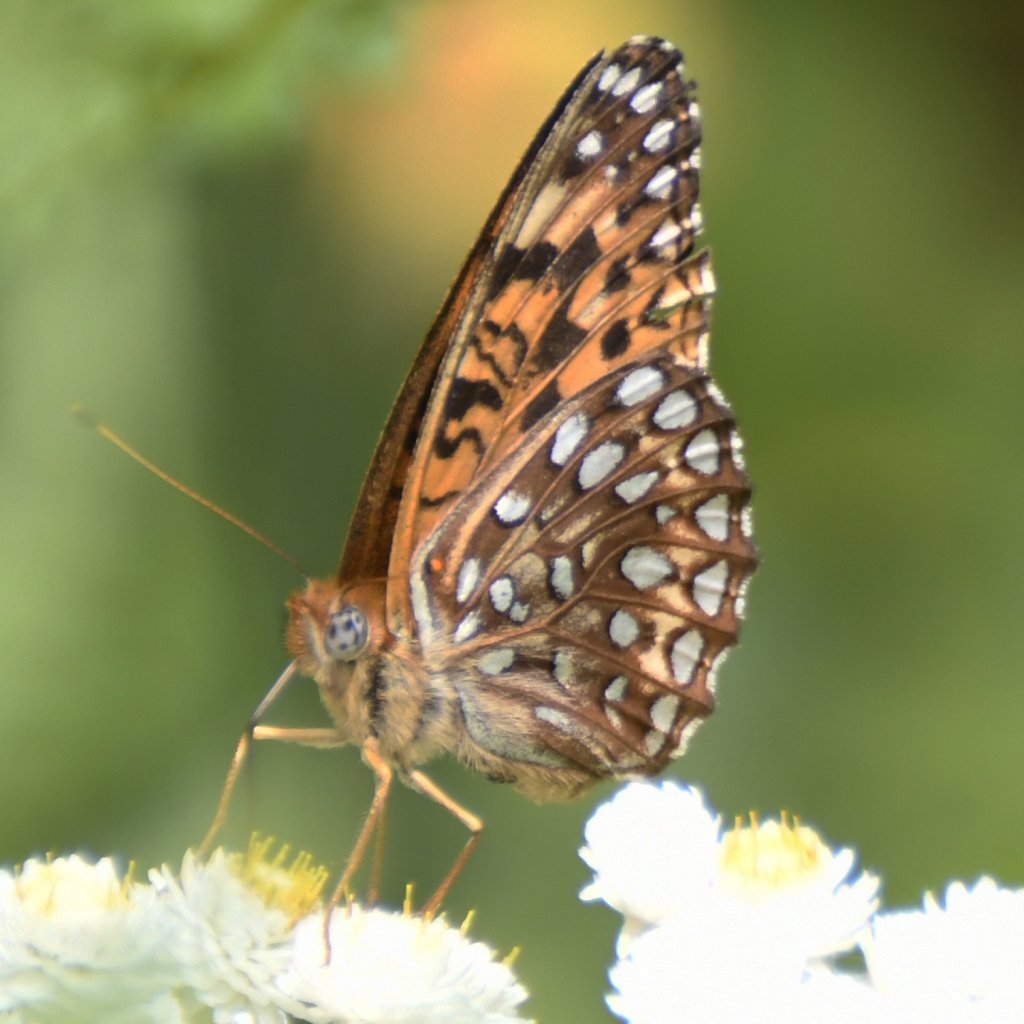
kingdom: Animalia
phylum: Arthropoda
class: Insecta
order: Lepidoptera
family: Nymphalidae
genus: Speyeria
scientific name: Speyeria atlantis
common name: Atlantis Fritillary
